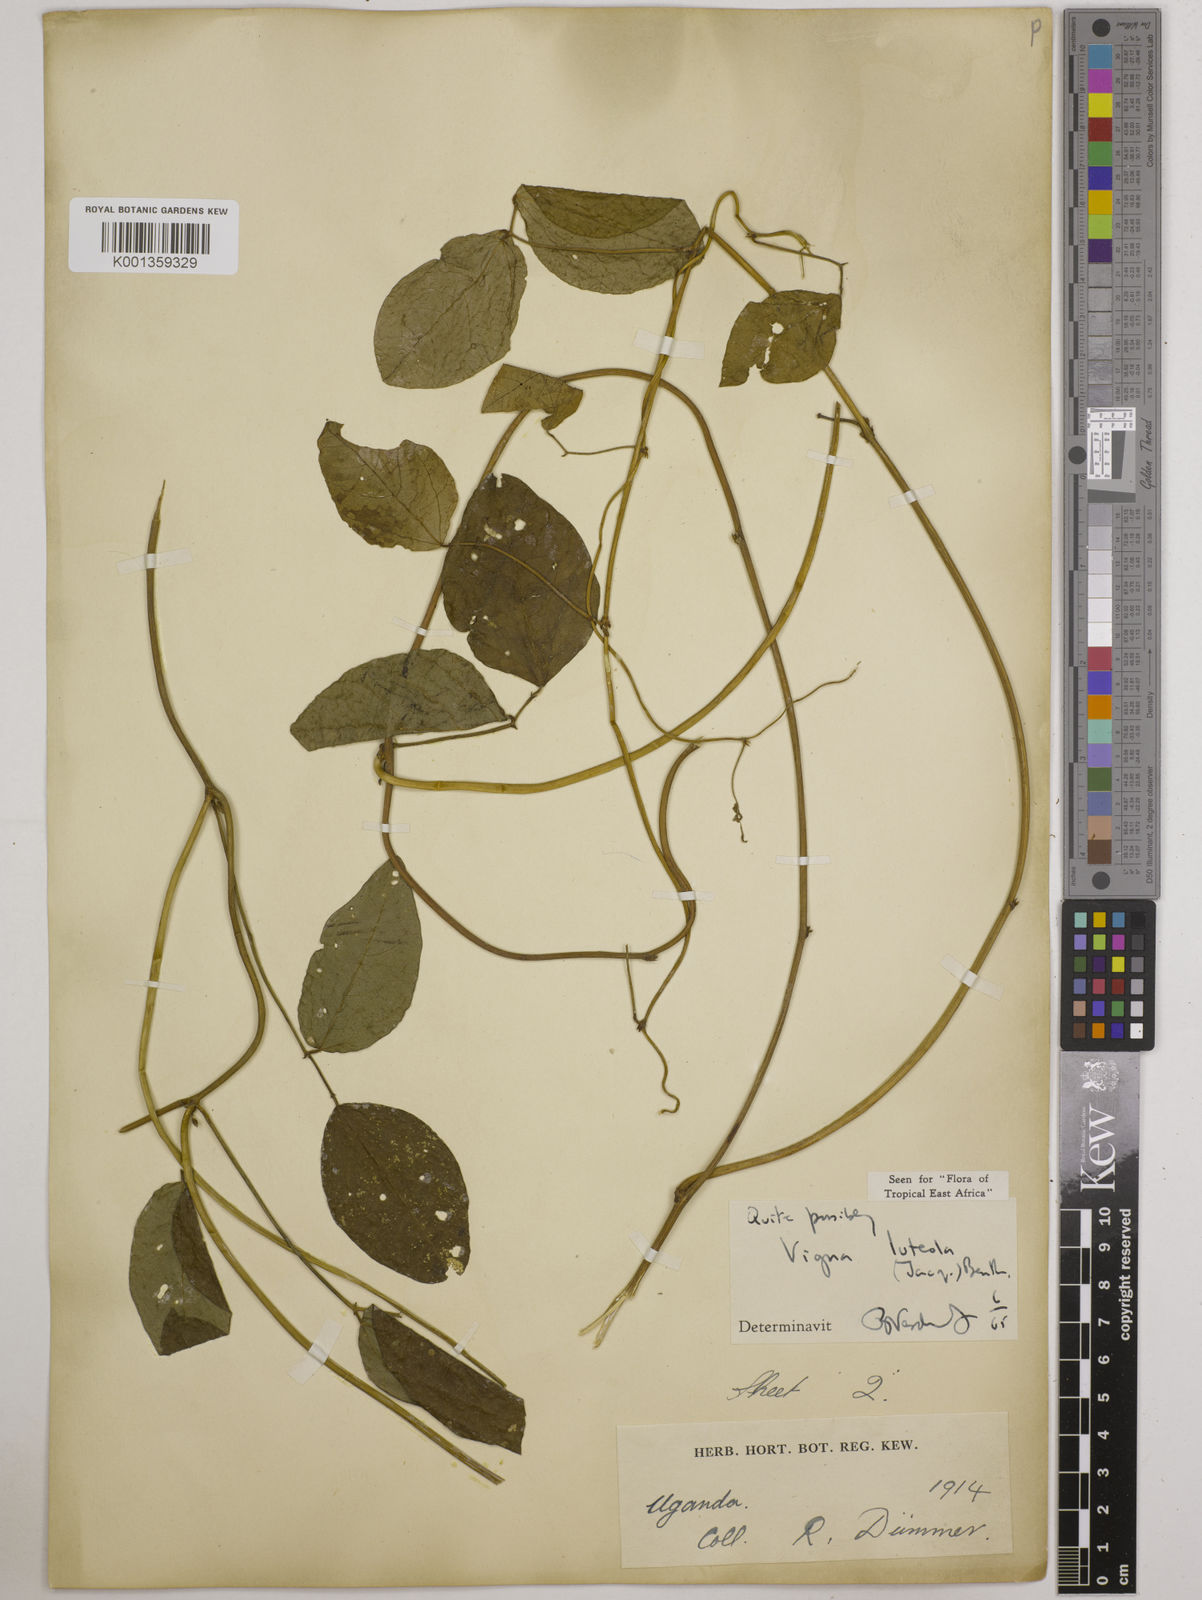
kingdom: Plantae
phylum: Tracheophyta
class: Magnoliopsida
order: Fabales
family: Fabaceae
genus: Vigna
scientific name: Vigna luteola
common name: Hairypod cowpea
